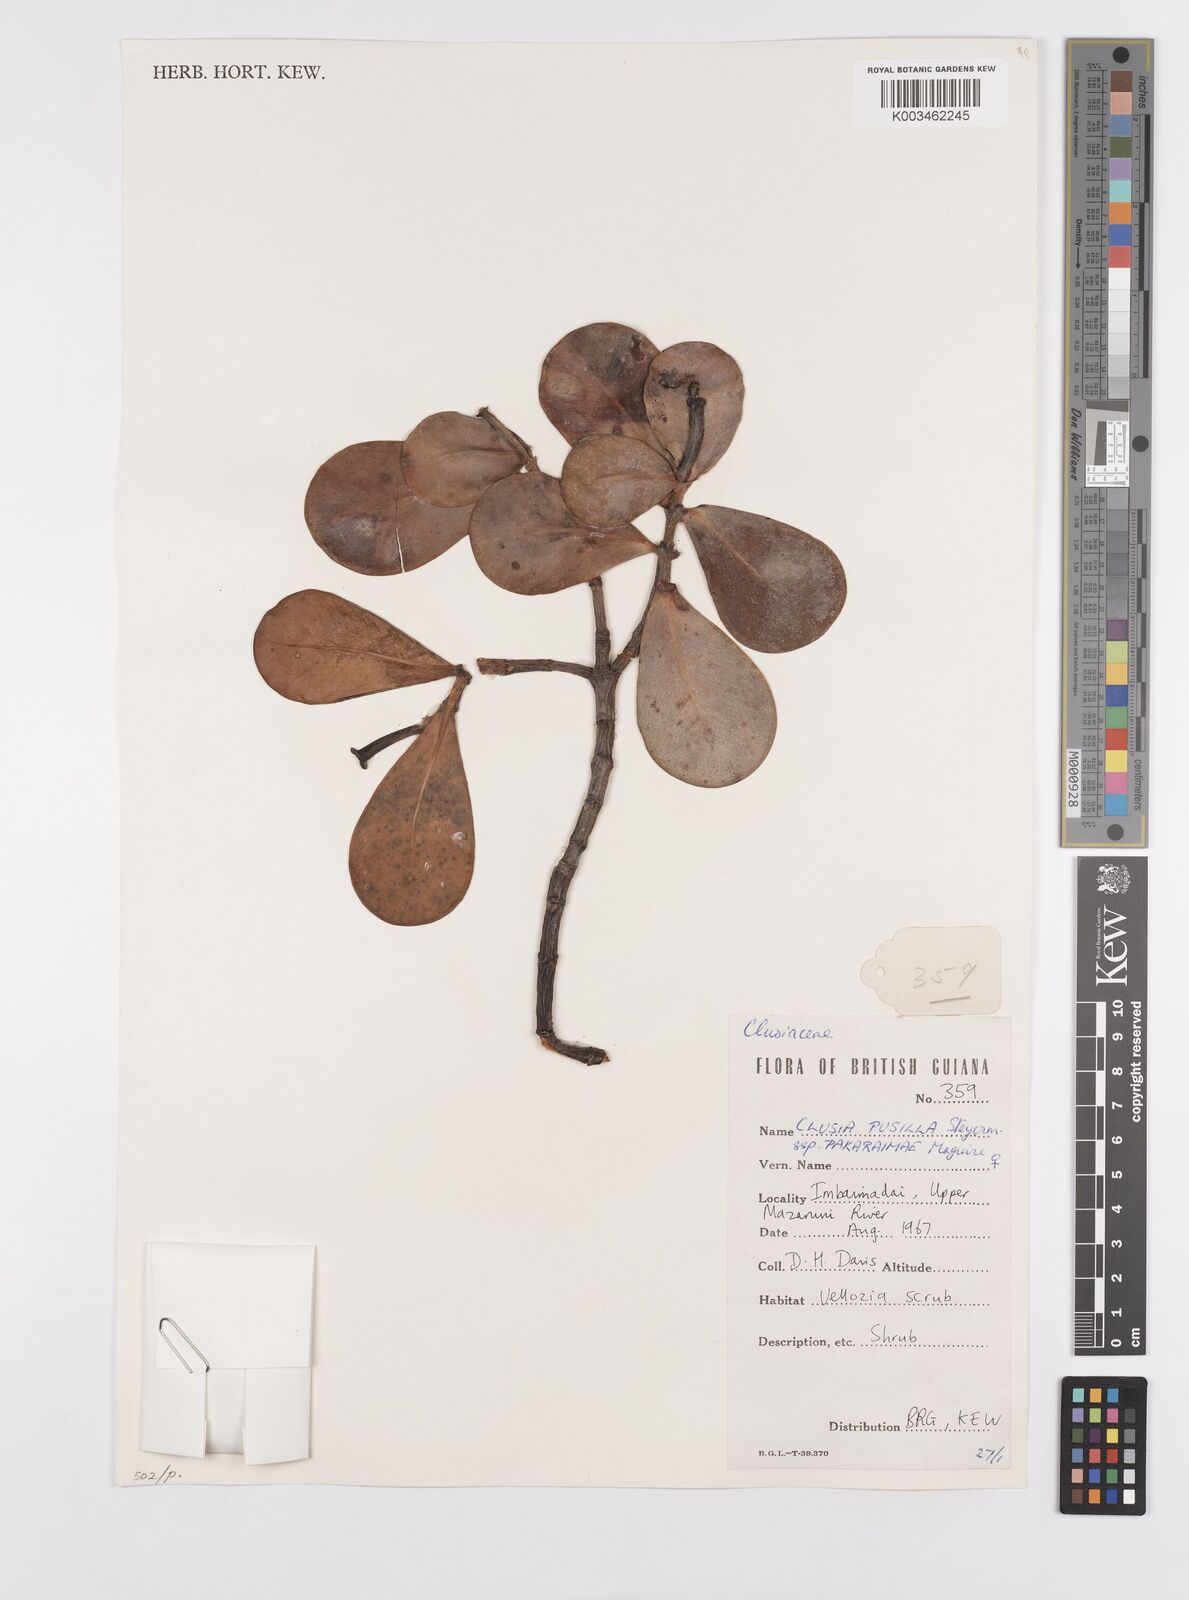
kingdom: Plantae
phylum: Tracheophyta
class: Magnoliopsida
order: Malpighiales
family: Clusiaceae
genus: Clusia
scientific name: Clusia pusilla
